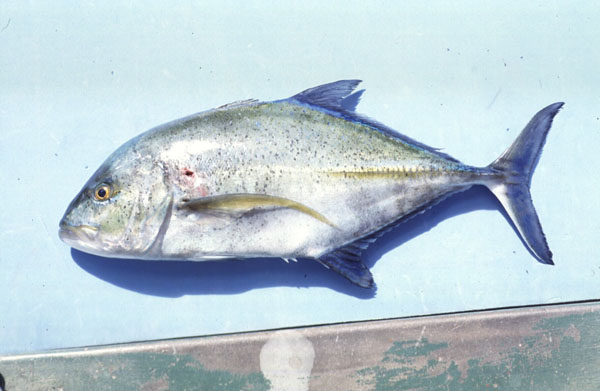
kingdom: Animalia
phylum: Chordata
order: Perciformes
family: Carangidae
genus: Caranx
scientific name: Caranx melampygus
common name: Bluefin trevally
